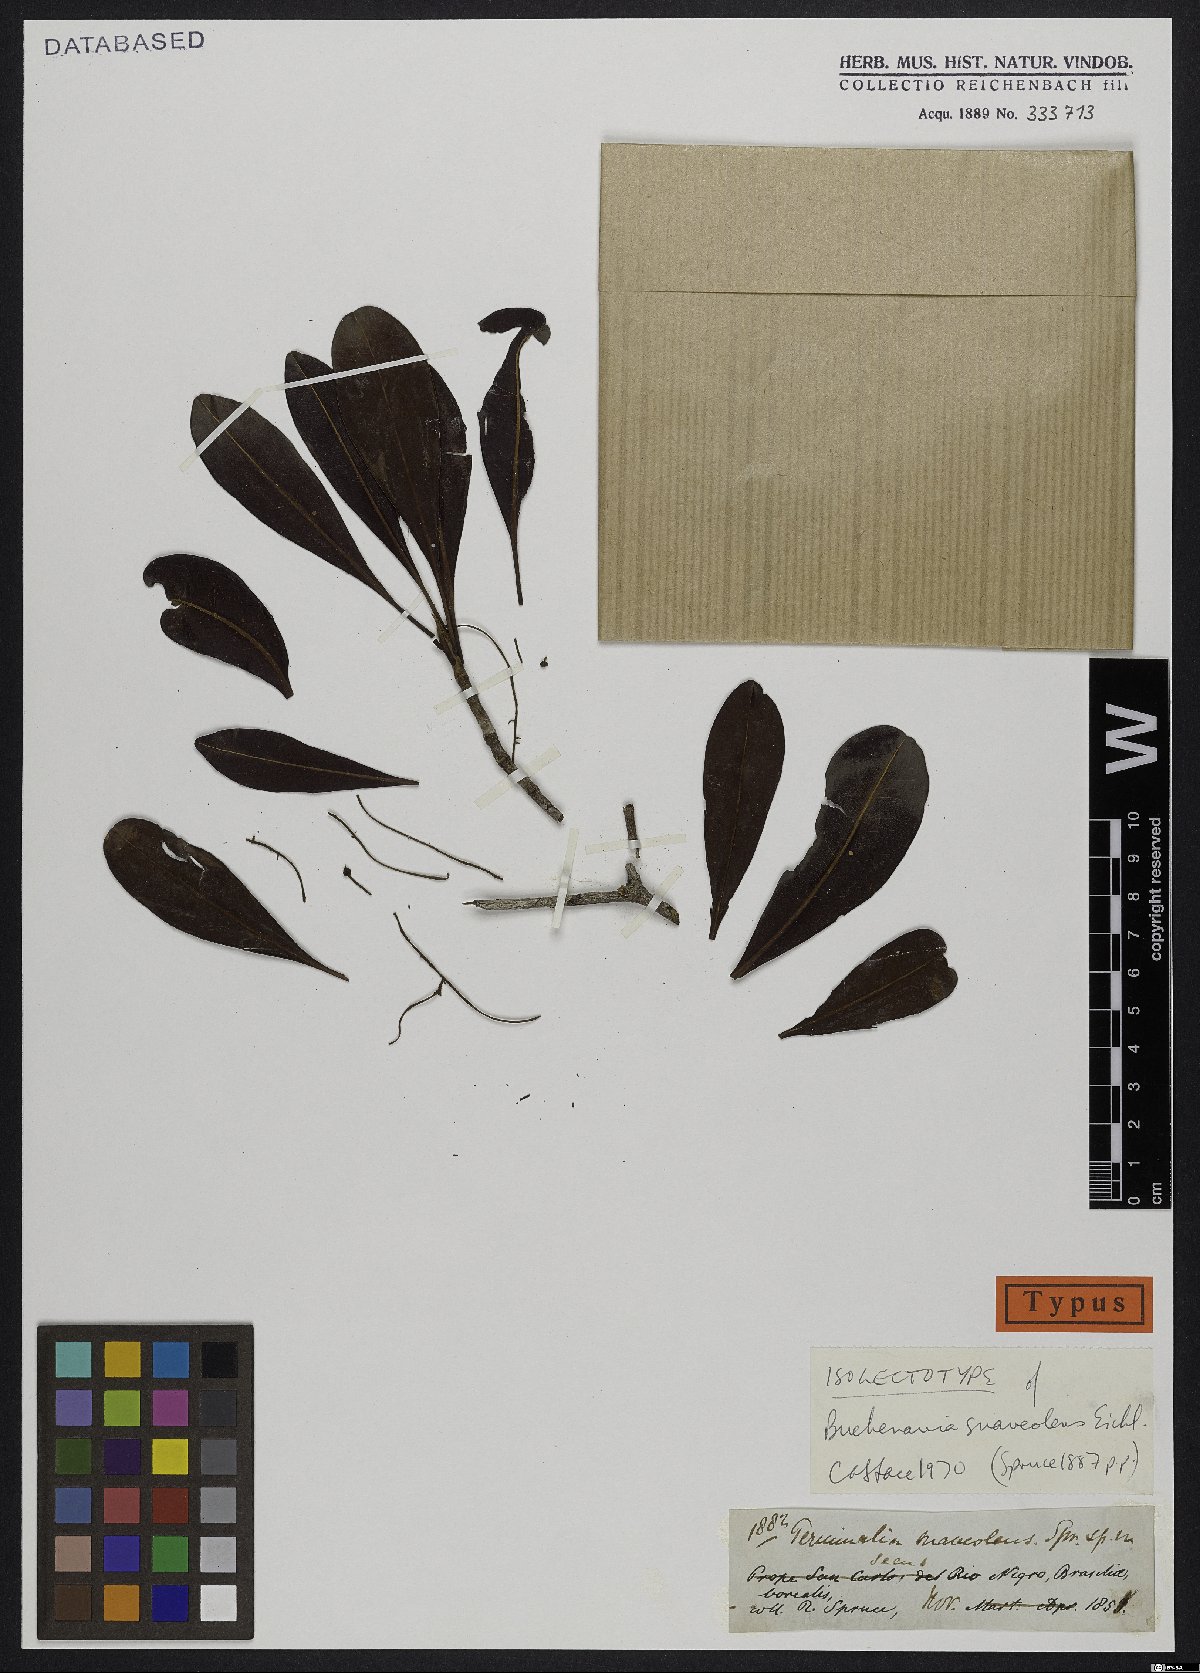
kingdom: Plantae
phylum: Tracheophyta
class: Magnoliopsida
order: Myrtales
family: Combretaceae
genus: Terminalia
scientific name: Terminalia suaveolens
